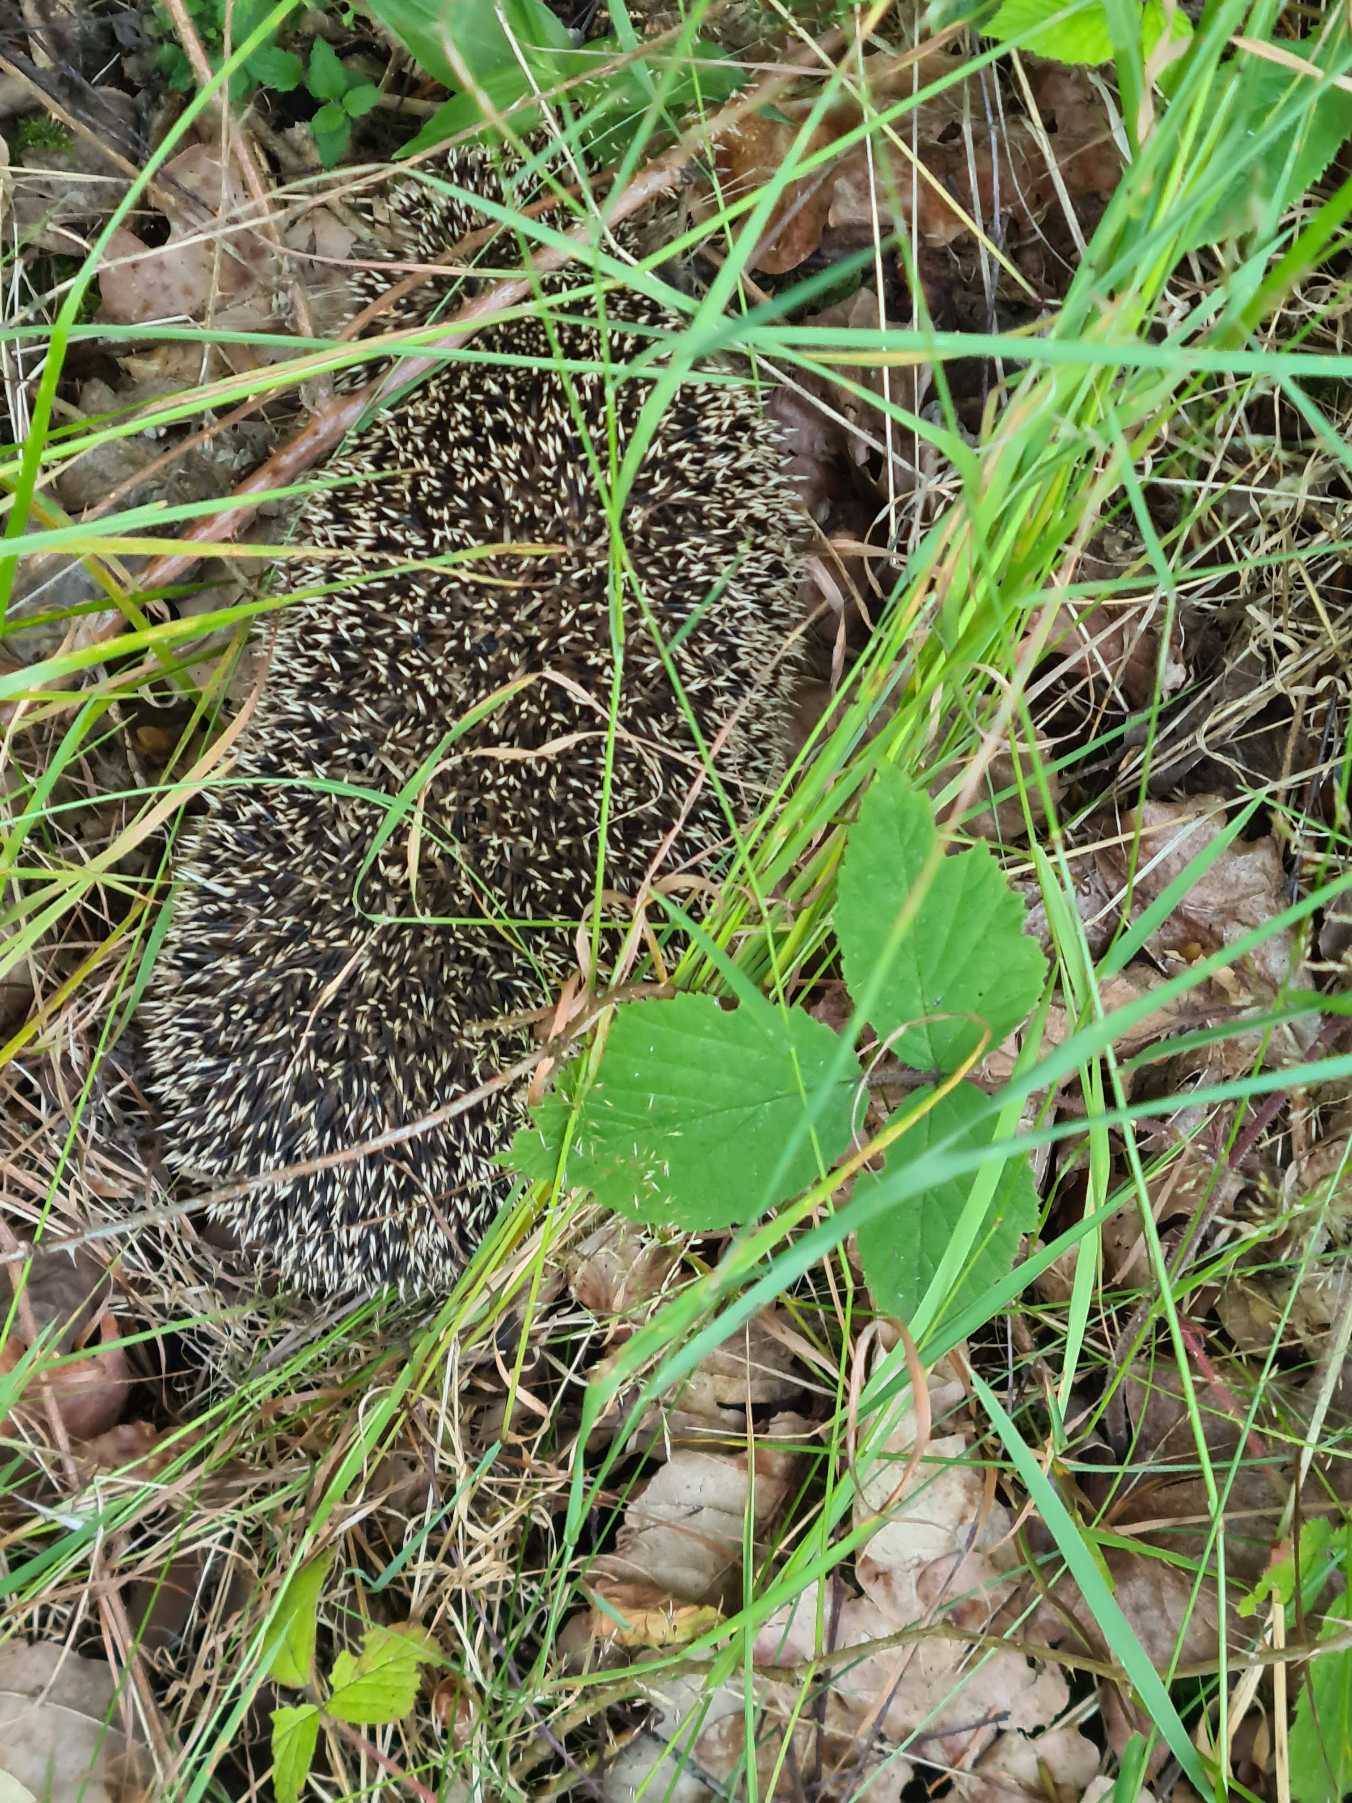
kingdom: Animalia
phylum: Chordata
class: Mammalia
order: Erinaceomorpha
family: Erinaceidae
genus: Erinaceus
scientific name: Erinaceus europaeus
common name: Pindsvin
